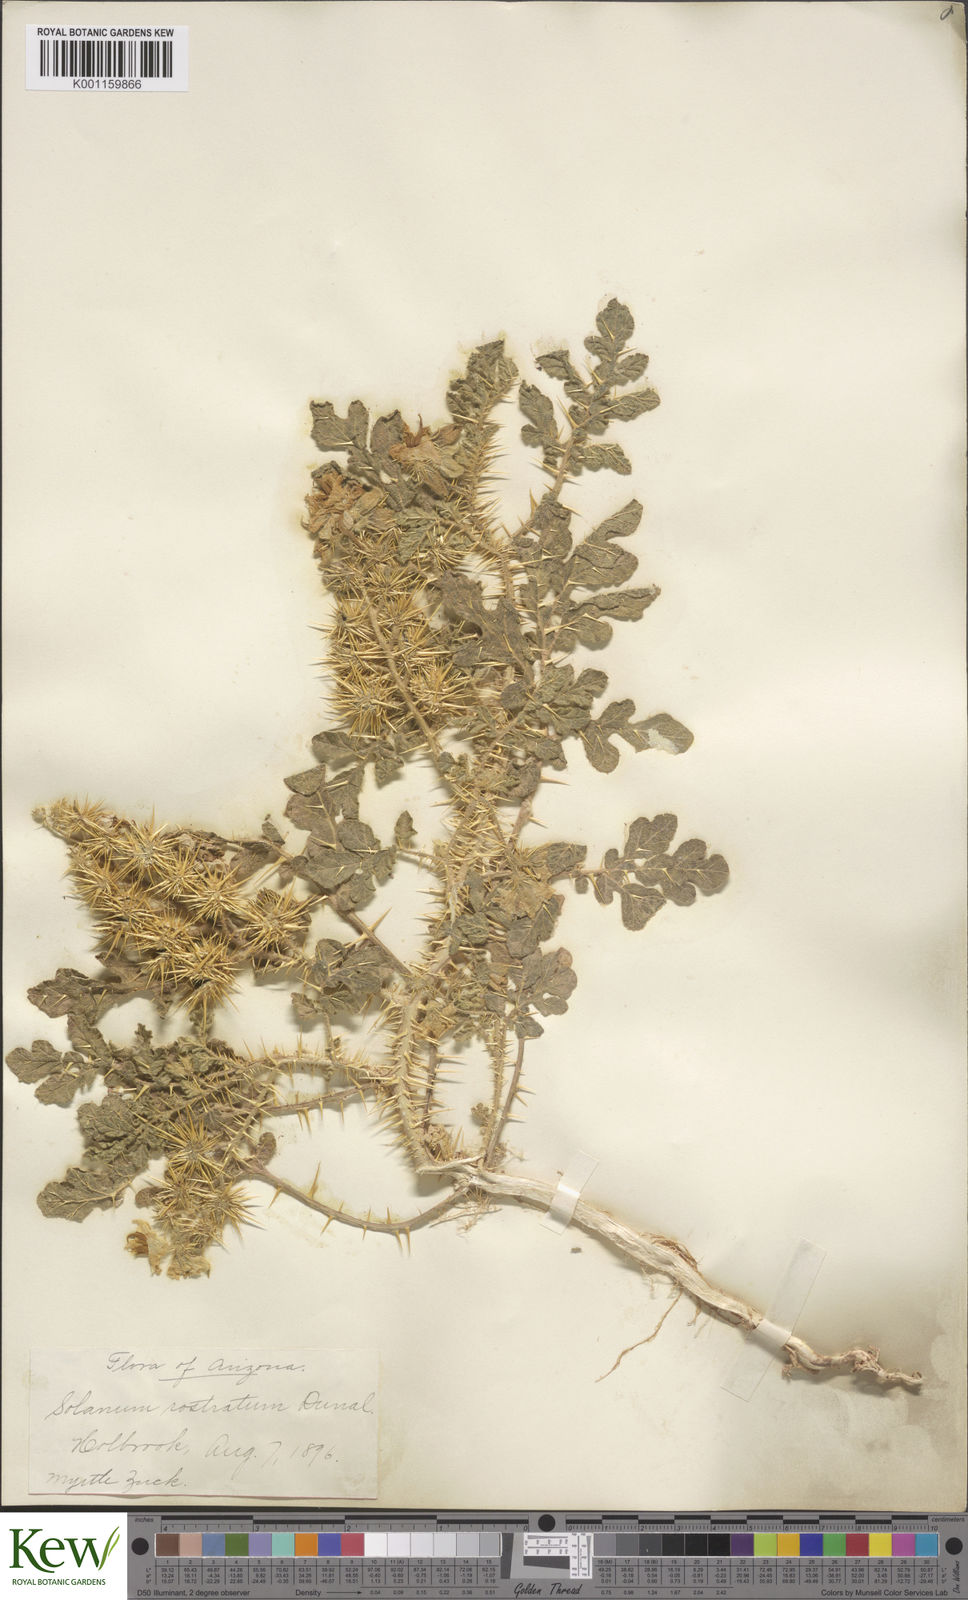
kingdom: Plantae
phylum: Tracheophyta
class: Magnoliopsida
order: Solanales
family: Solanaceae
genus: Solanum
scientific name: Solanum angustifolium
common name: Buffalobur nightshade
